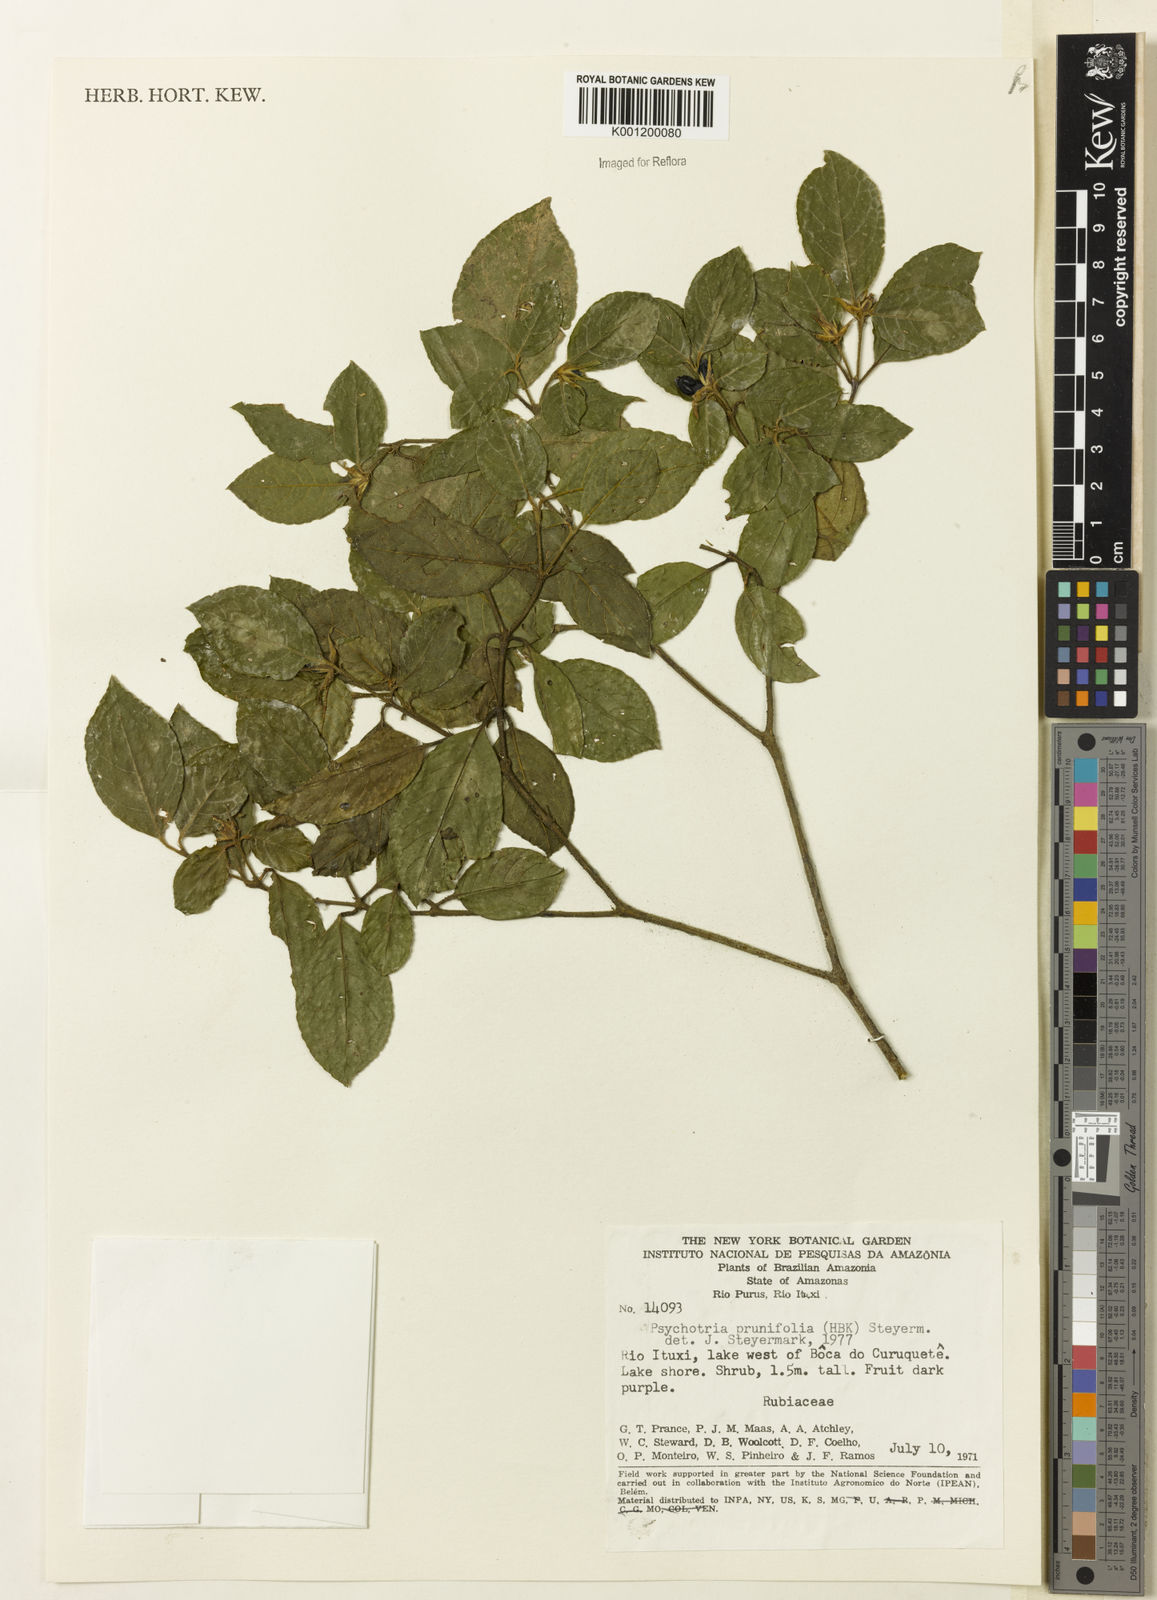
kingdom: Plantae
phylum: Tracheophyta
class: Magnoliopsida
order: Gentianales
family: Rubiaceae
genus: Palicourea
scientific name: Palicourea prunifolia
